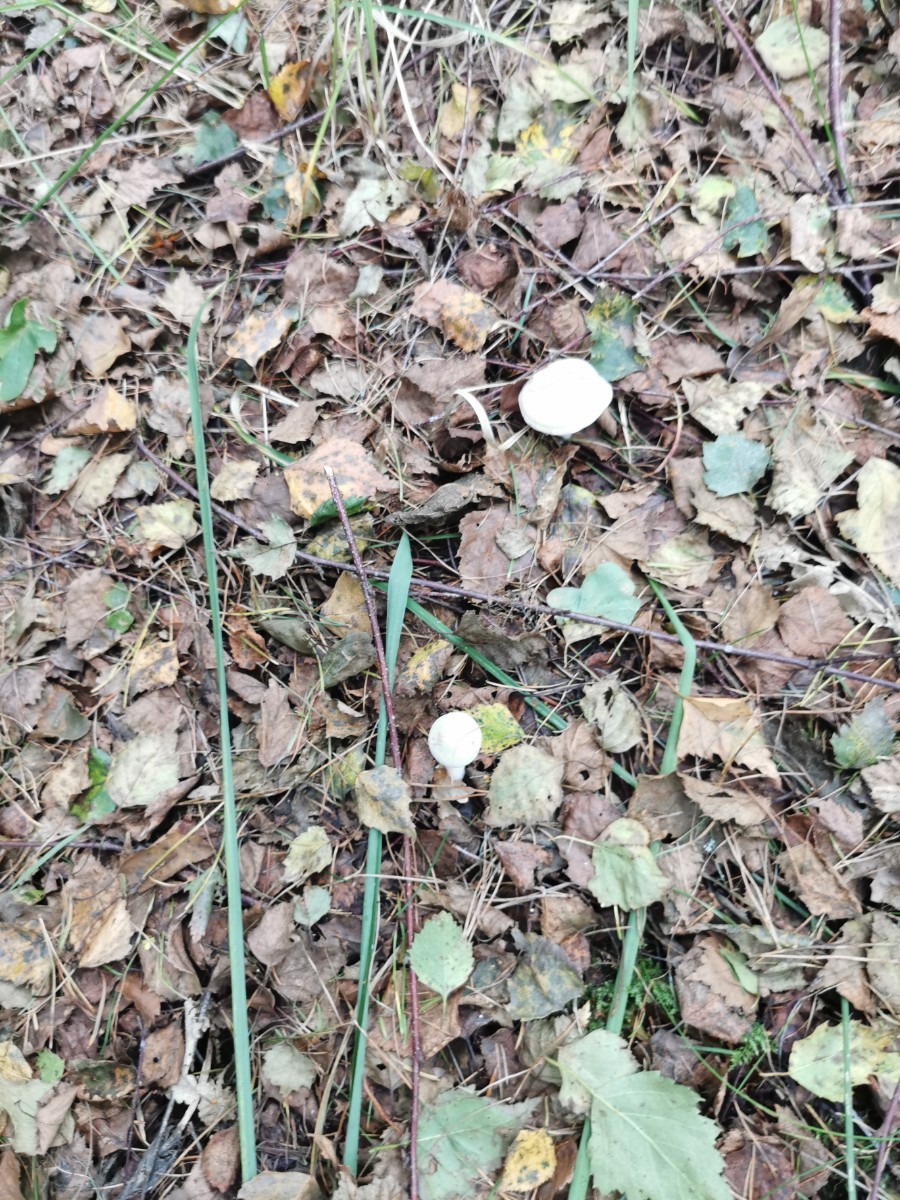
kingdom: Fungi
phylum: Basidiomycota
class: Agaricomycetes
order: Agaricales
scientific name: Agaricales
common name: champignonordenen
